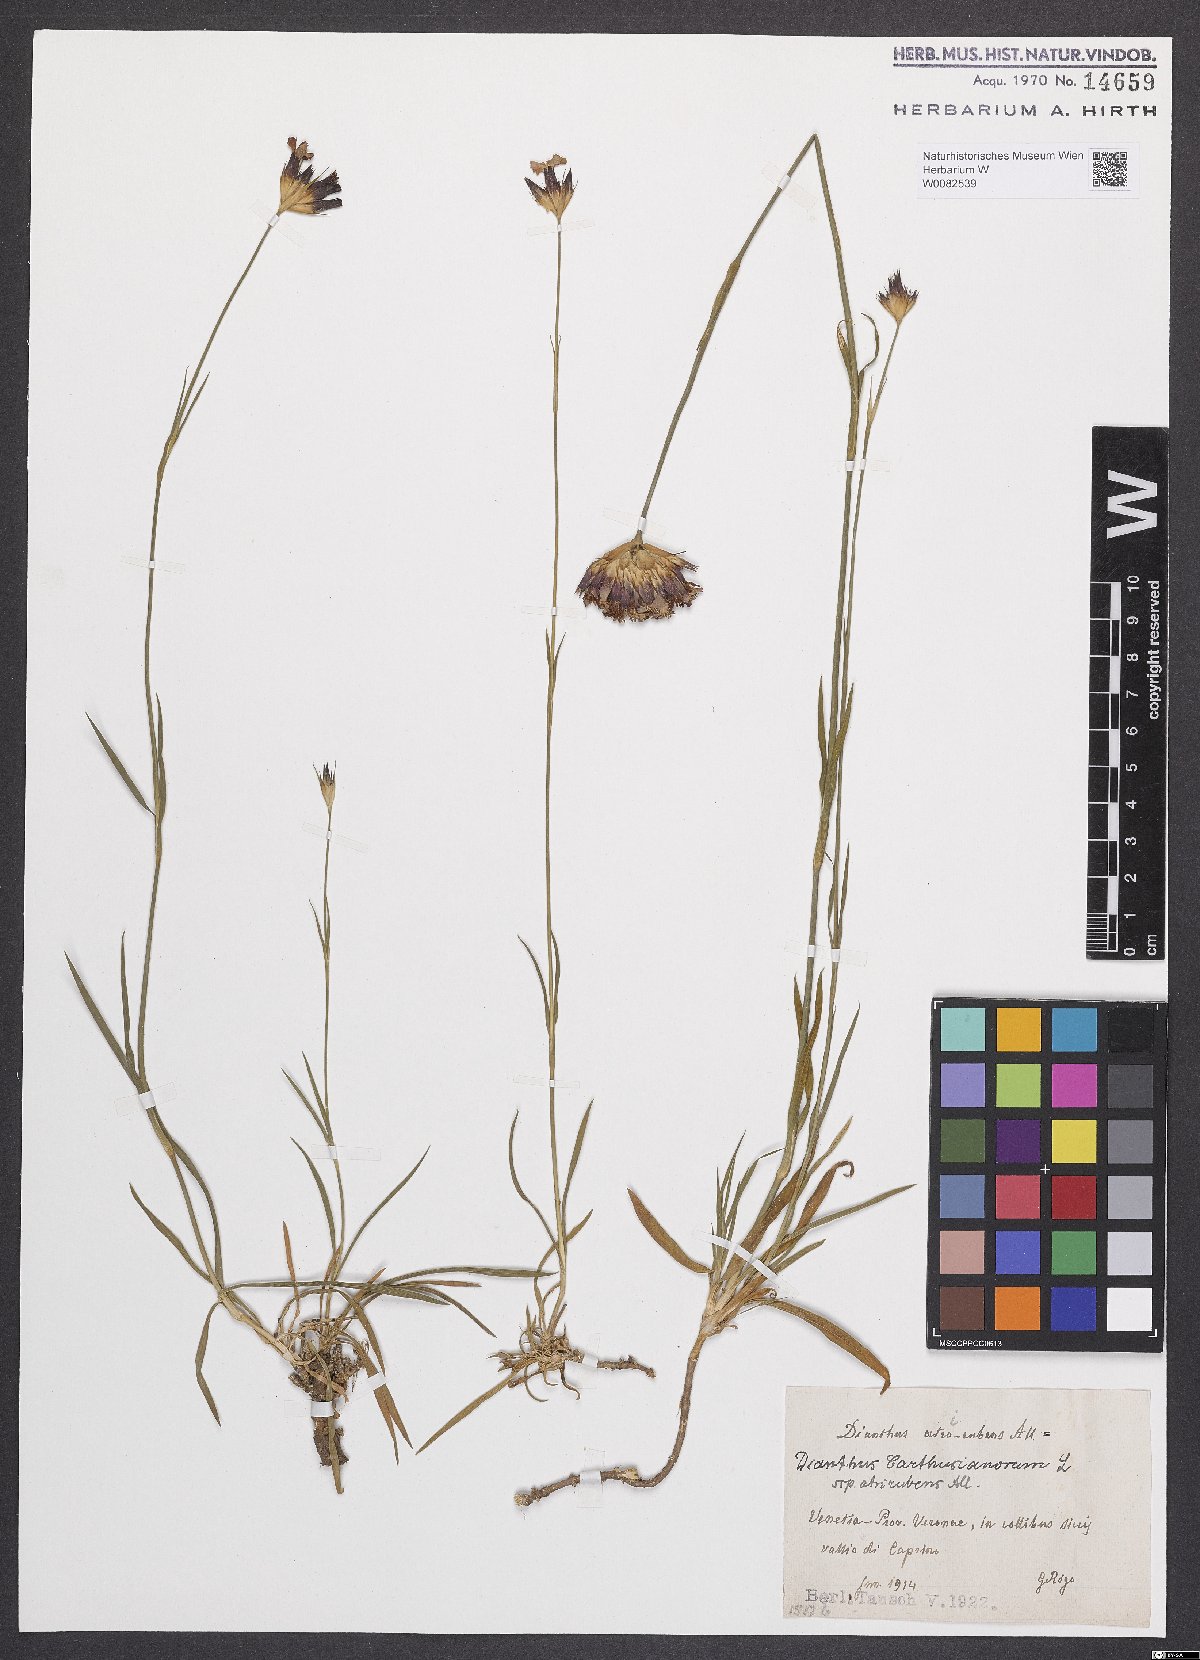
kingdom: Plantae
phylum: Tracheophyta
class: Magnoliopsida
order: Caryophyllales
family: Caryophyllaceae
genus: Dianthus
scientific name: Dianthus carthusianorum
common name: Carthusian pink
